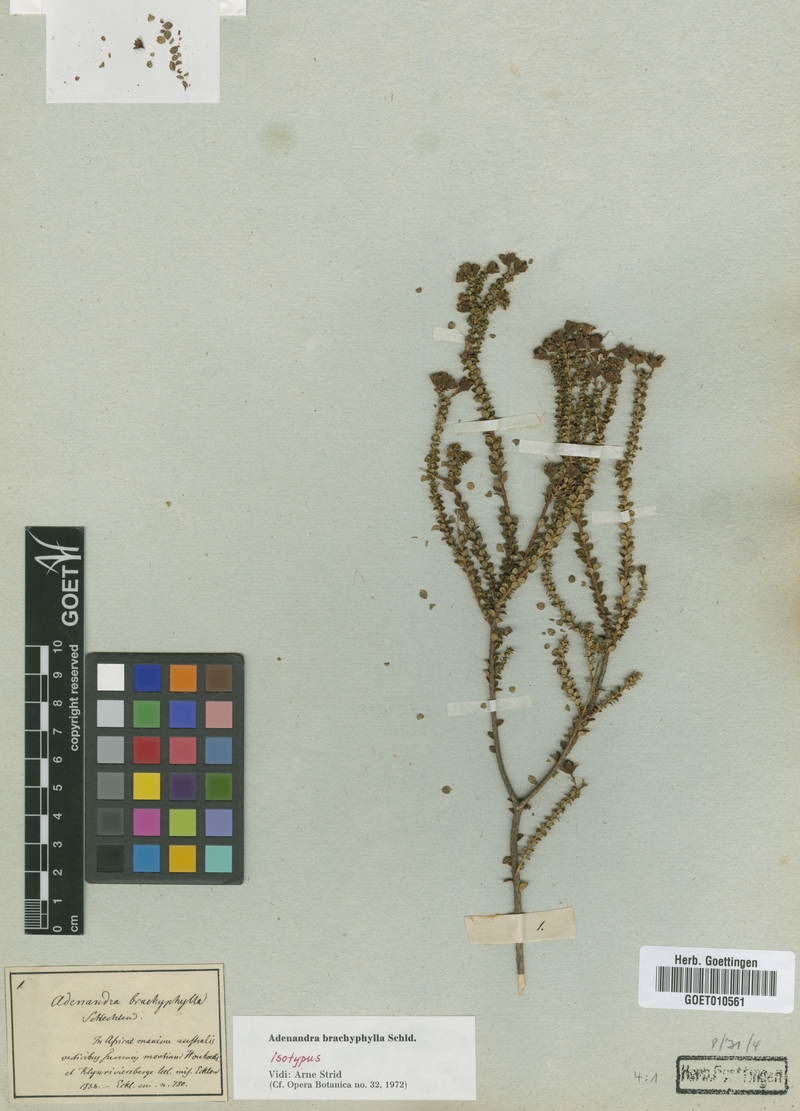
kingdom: Plantae
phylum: Tracheophyta
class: Magnoliopsida
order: Sapindales
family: Rutaceae
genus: Adenandra
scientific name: Adenandra brachyphylla
